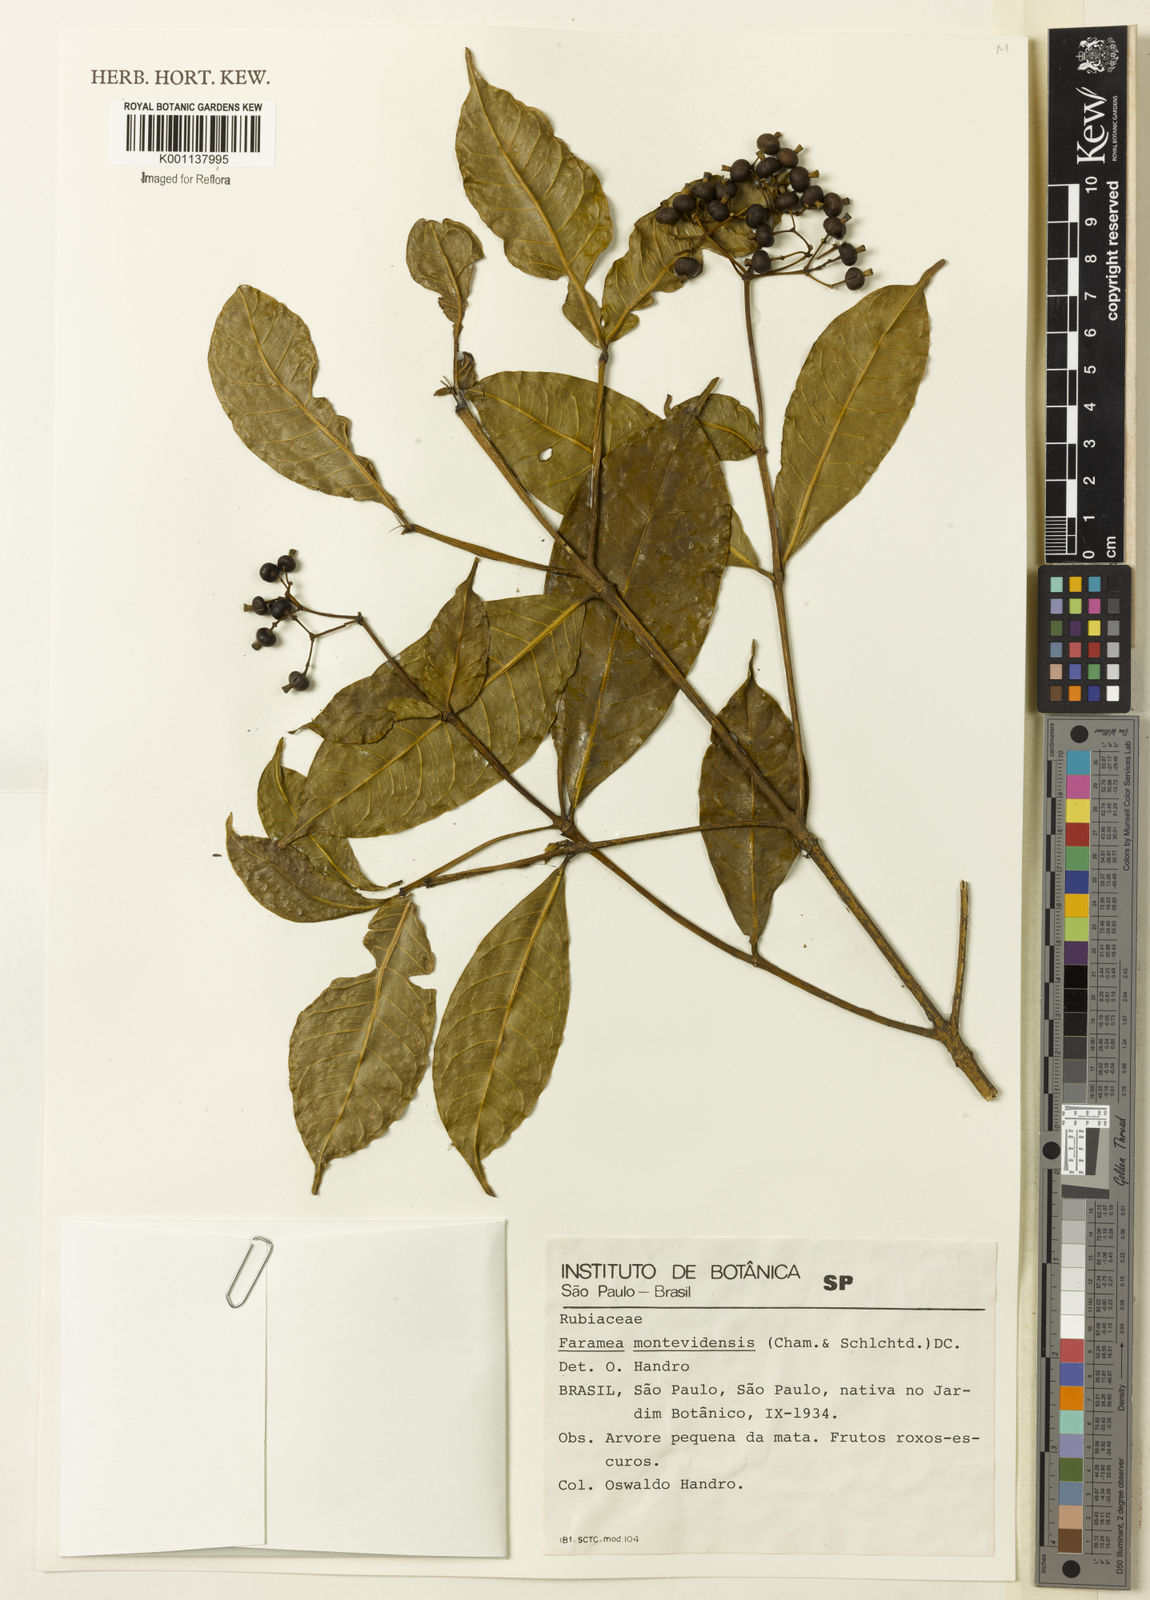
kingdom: Plantae
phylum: Tracheophyta
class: Magnoliopsida
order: Gentianales
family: Rubiaceae
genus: Faramea
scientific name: Faramea montevidensis
